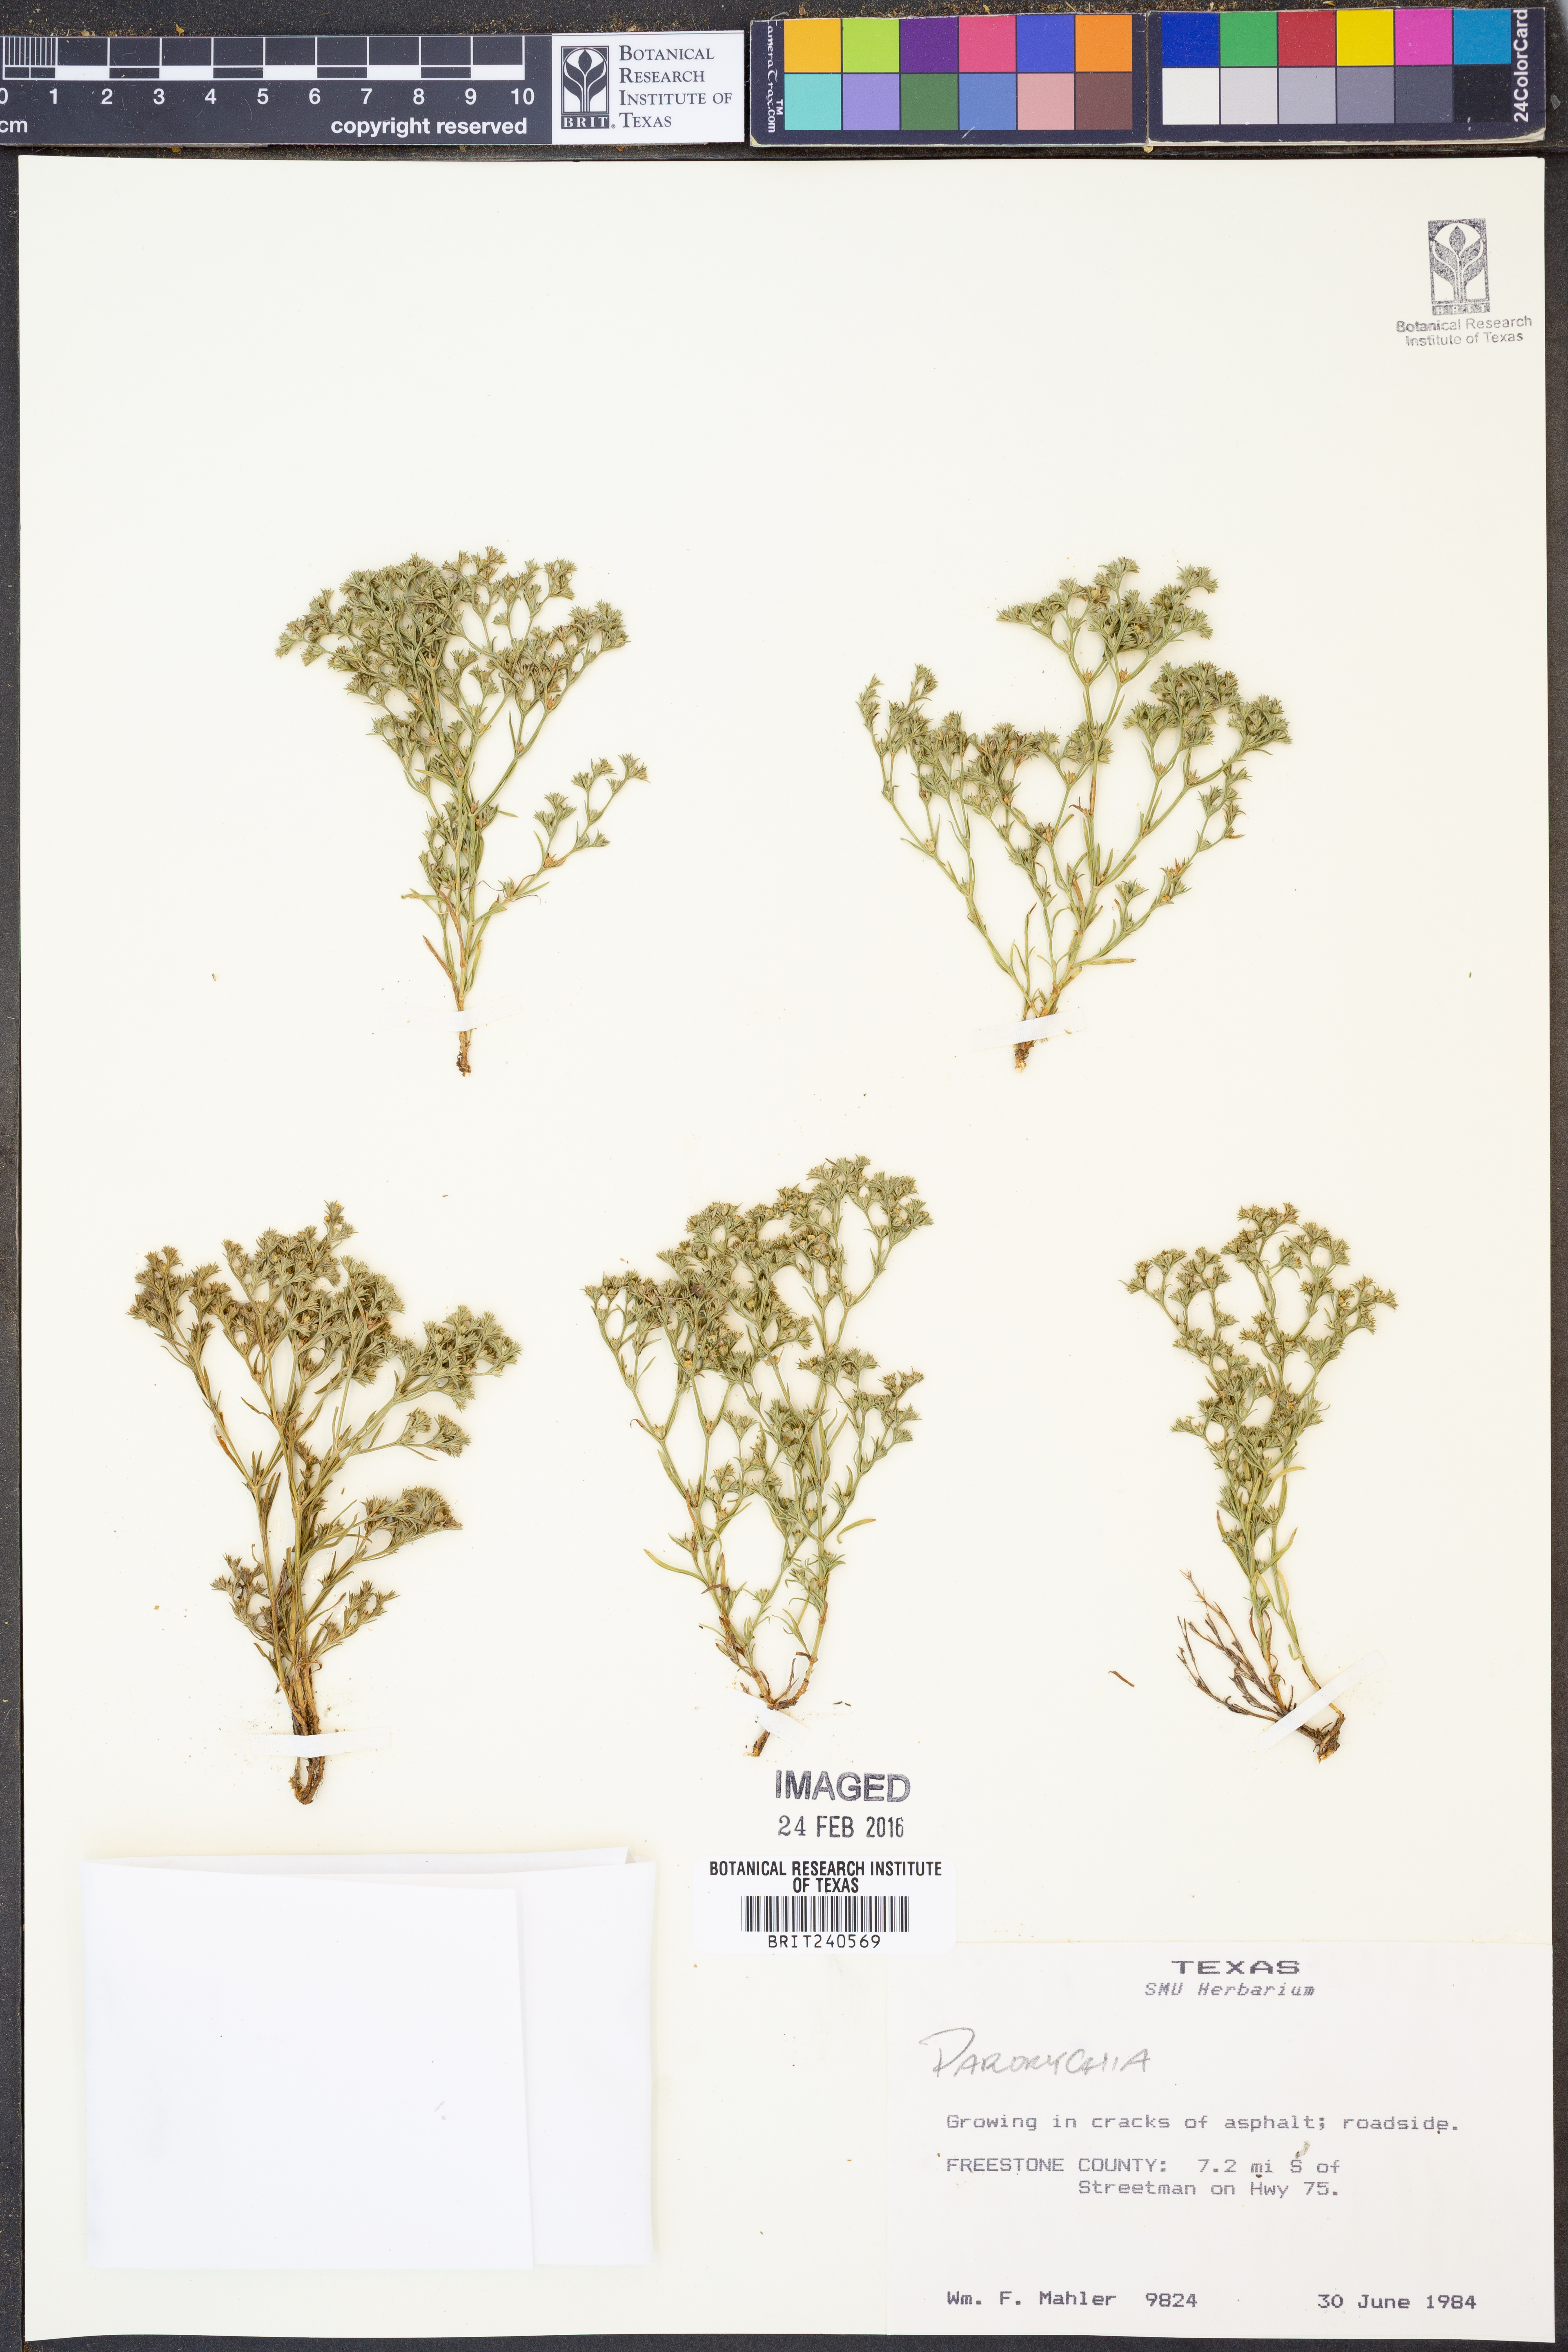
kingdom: Plantae
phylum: Tracheophyta
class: Magnoliopsida
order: Caryophyllales
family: Caryophyllaceae
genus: Paronychia
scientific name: Paronychia
